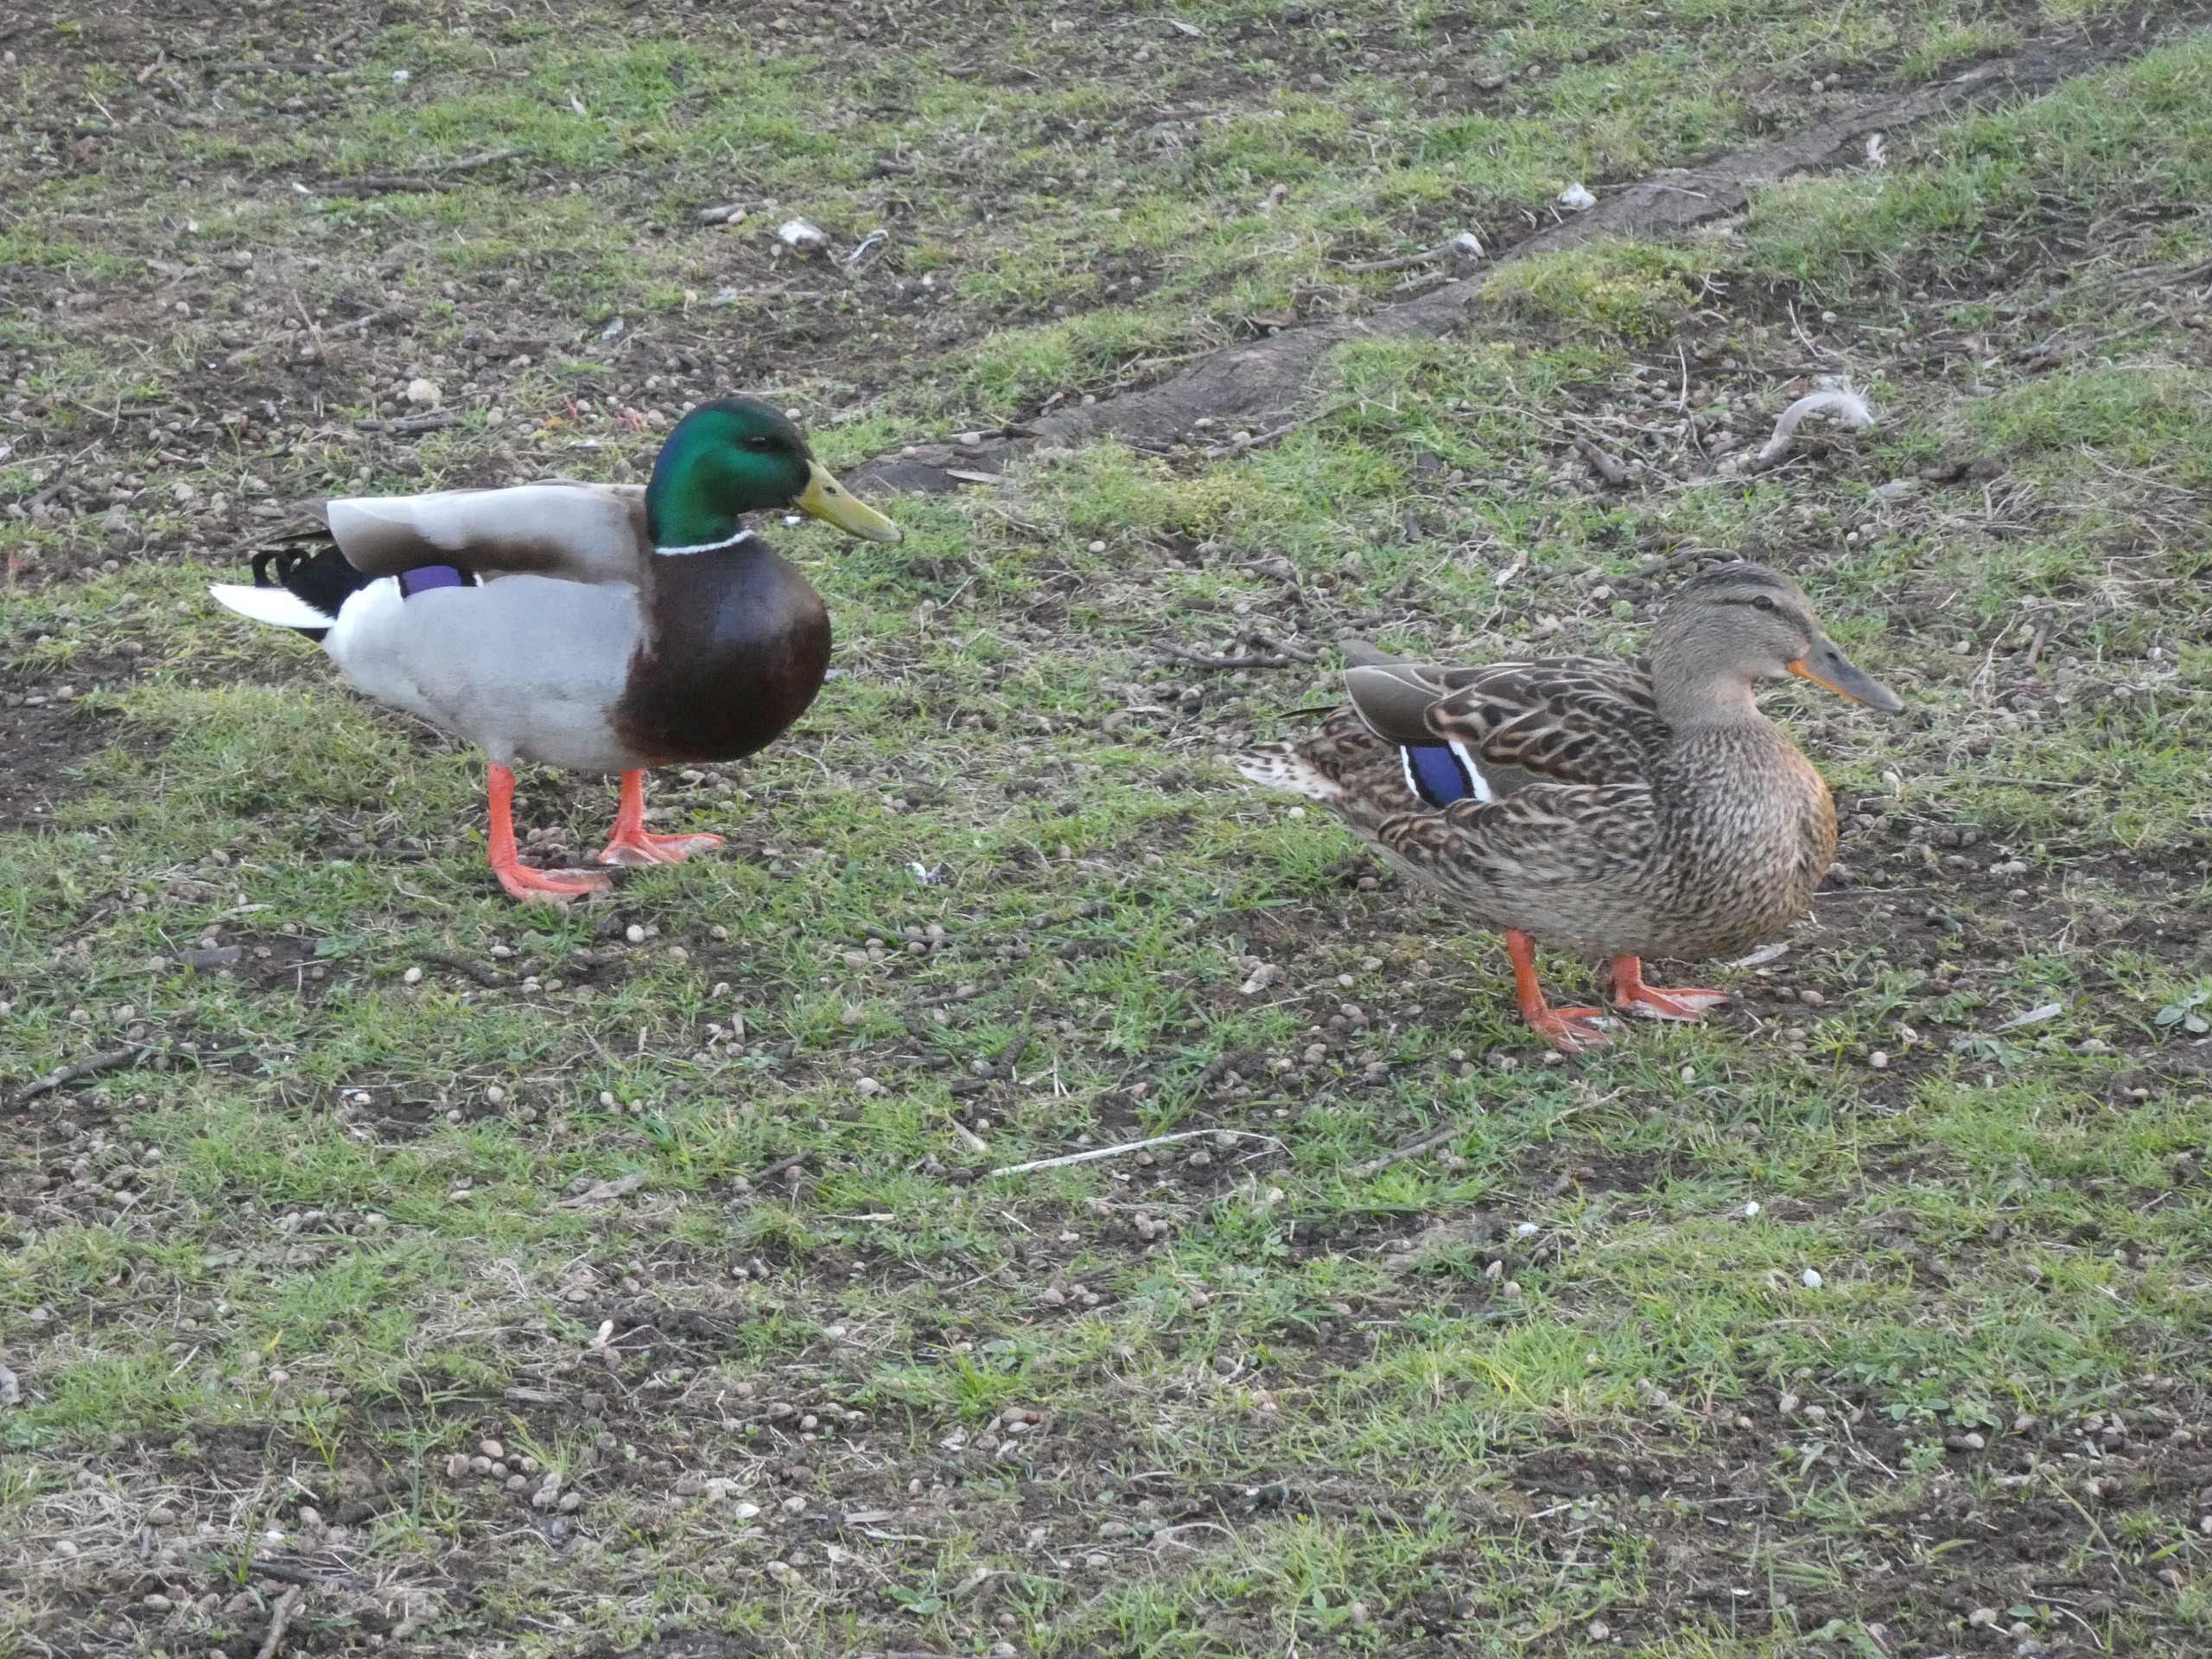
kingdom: Animalia
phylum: Chordata
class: Aves
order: Anseriformes
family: Anatidae
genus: Anas
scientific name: Anas platyrhynchos
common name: Gråand
